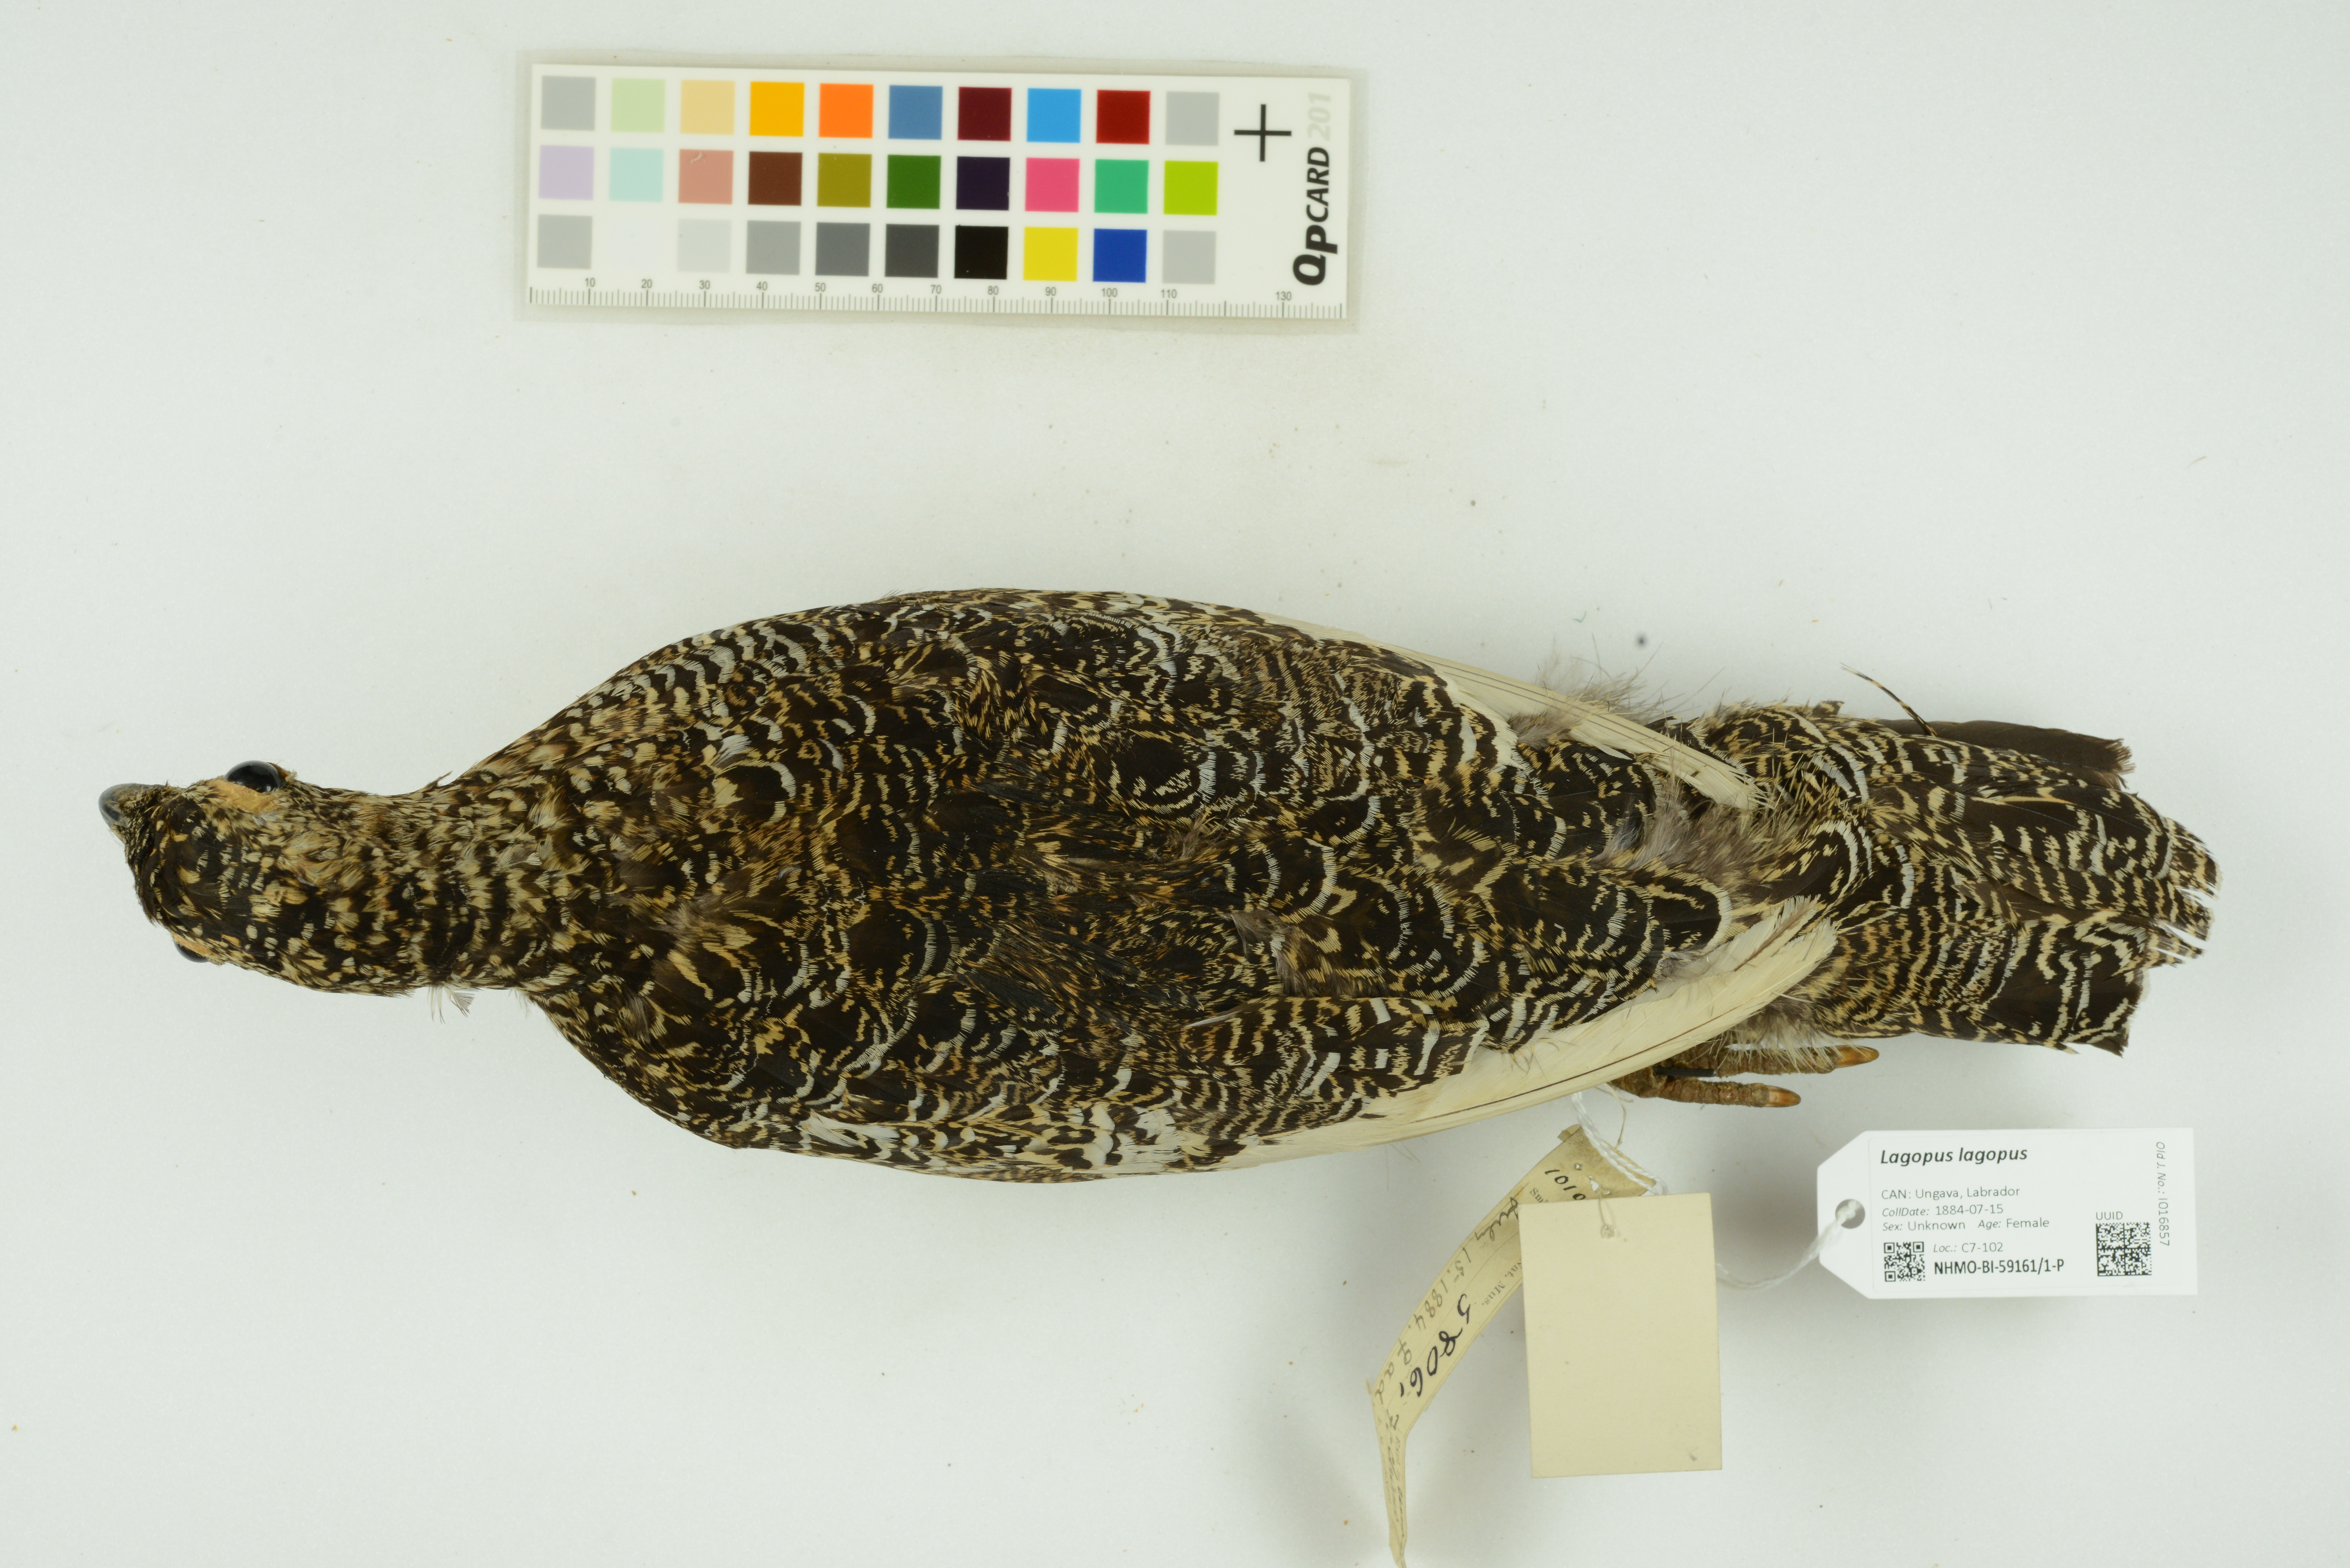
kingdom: Animalia
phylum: Chordata
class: Aves
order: Galliformes
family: Phasianidae
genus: Lagopus
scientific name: Lagopus lagopus
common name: Willow ptarmigan
